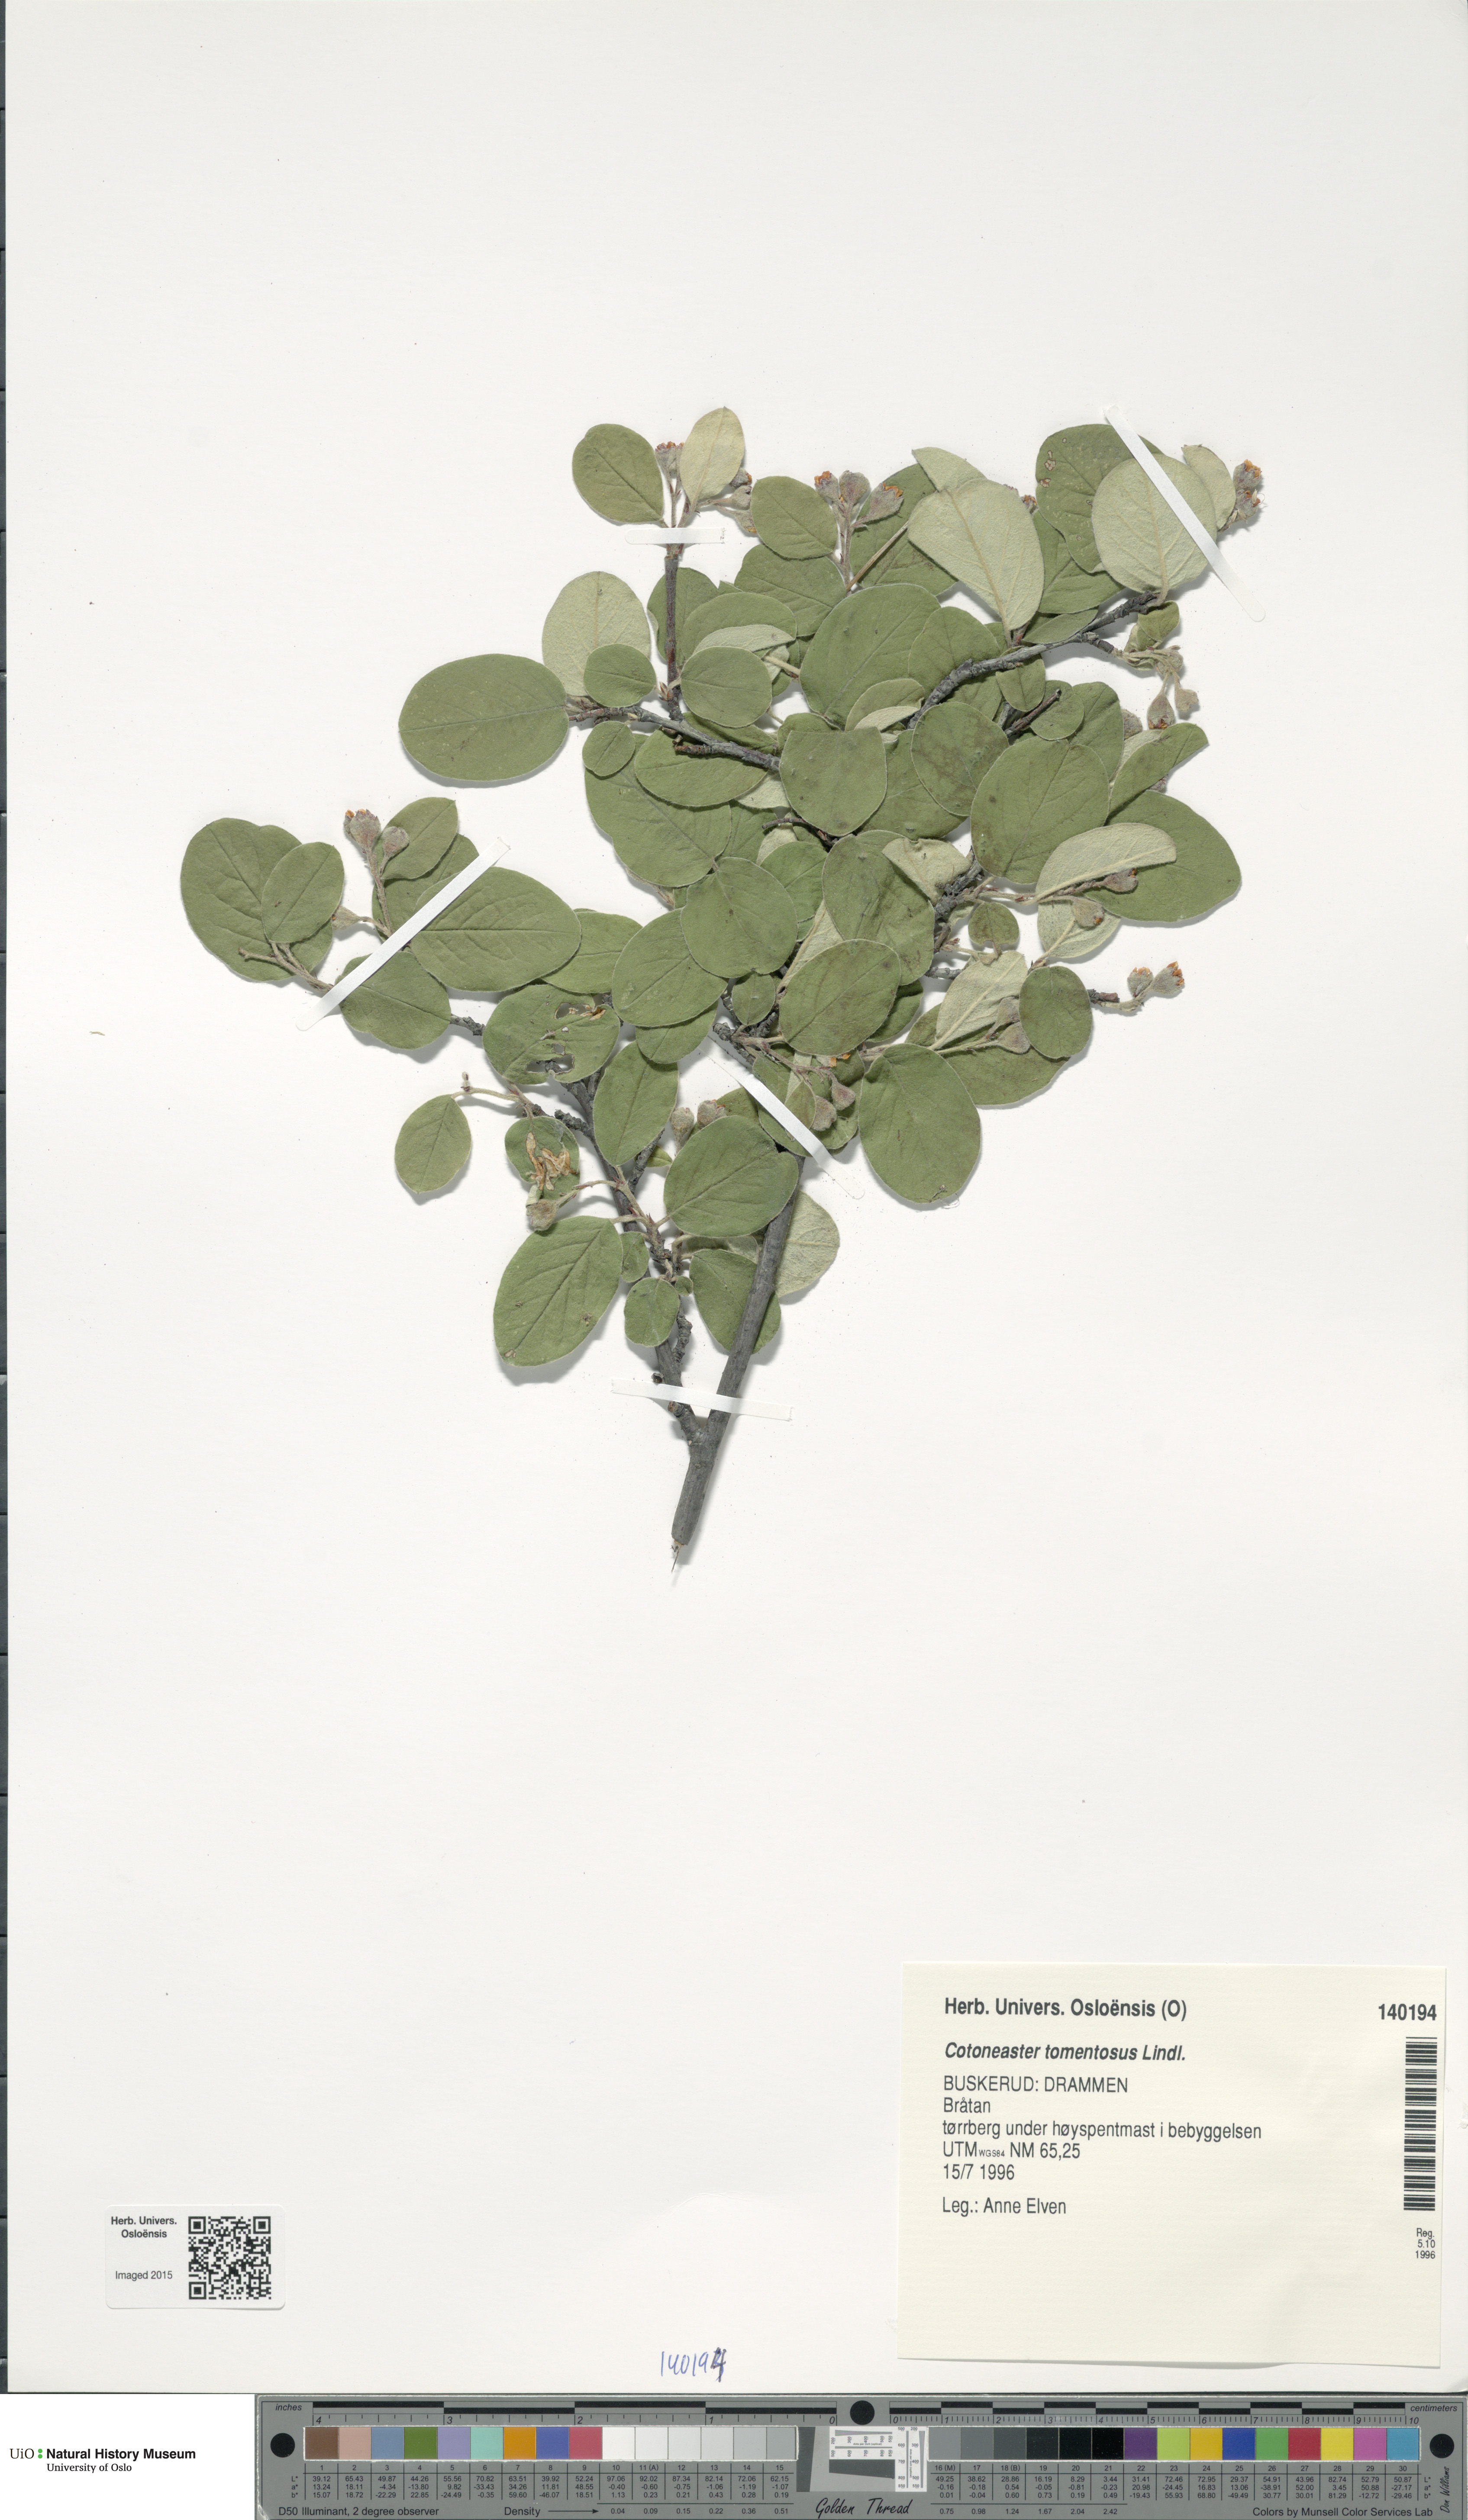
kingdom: Plantae
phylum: Tracheophyta
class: Magnoliopsida
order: Rosales
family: Rosaceae
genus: Cotoneaster
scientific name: Cotoneaster tomentosus
